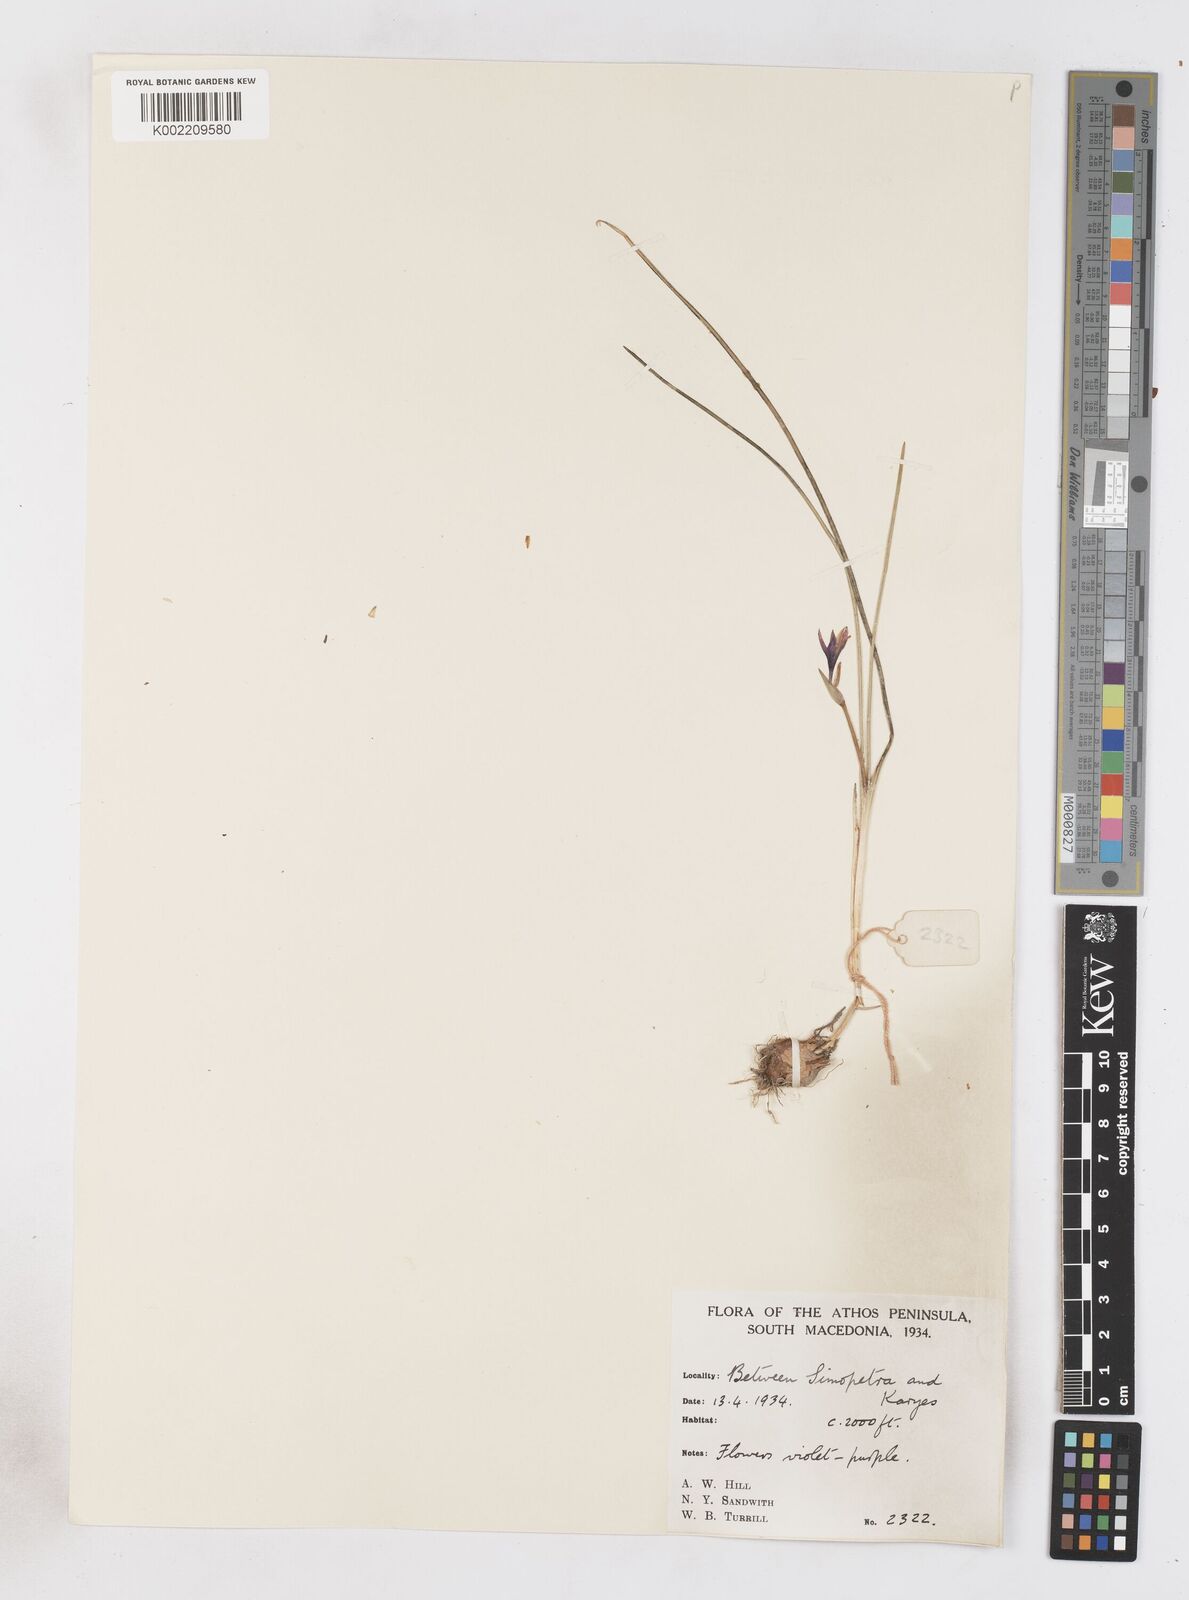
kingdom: Plantae
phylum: Tracheophyta
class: Liliopsida
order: Asparagales
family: Iridaceae
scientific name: Iridaceae
